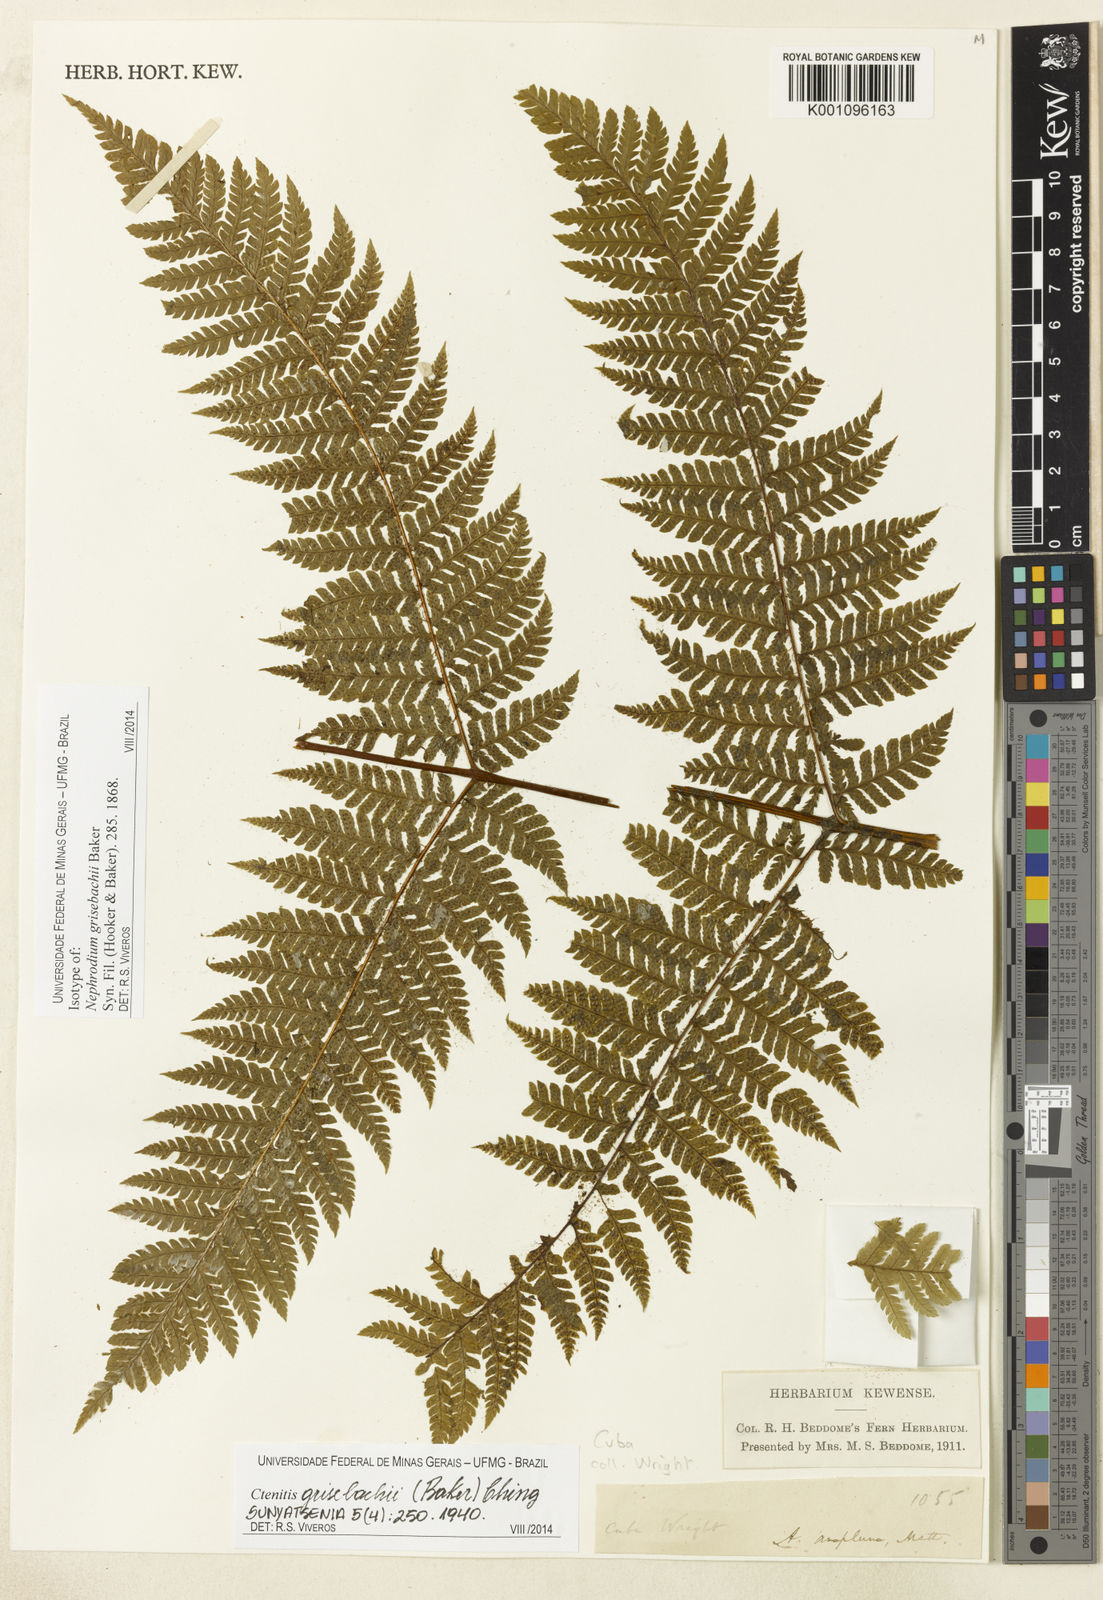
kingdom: Plantae
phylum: Tracheophyta
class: Polypodiopsida
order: Polypodiales
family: Dryopteridaceae
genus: Ctenitis
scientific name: Ctenitis grisebachii
